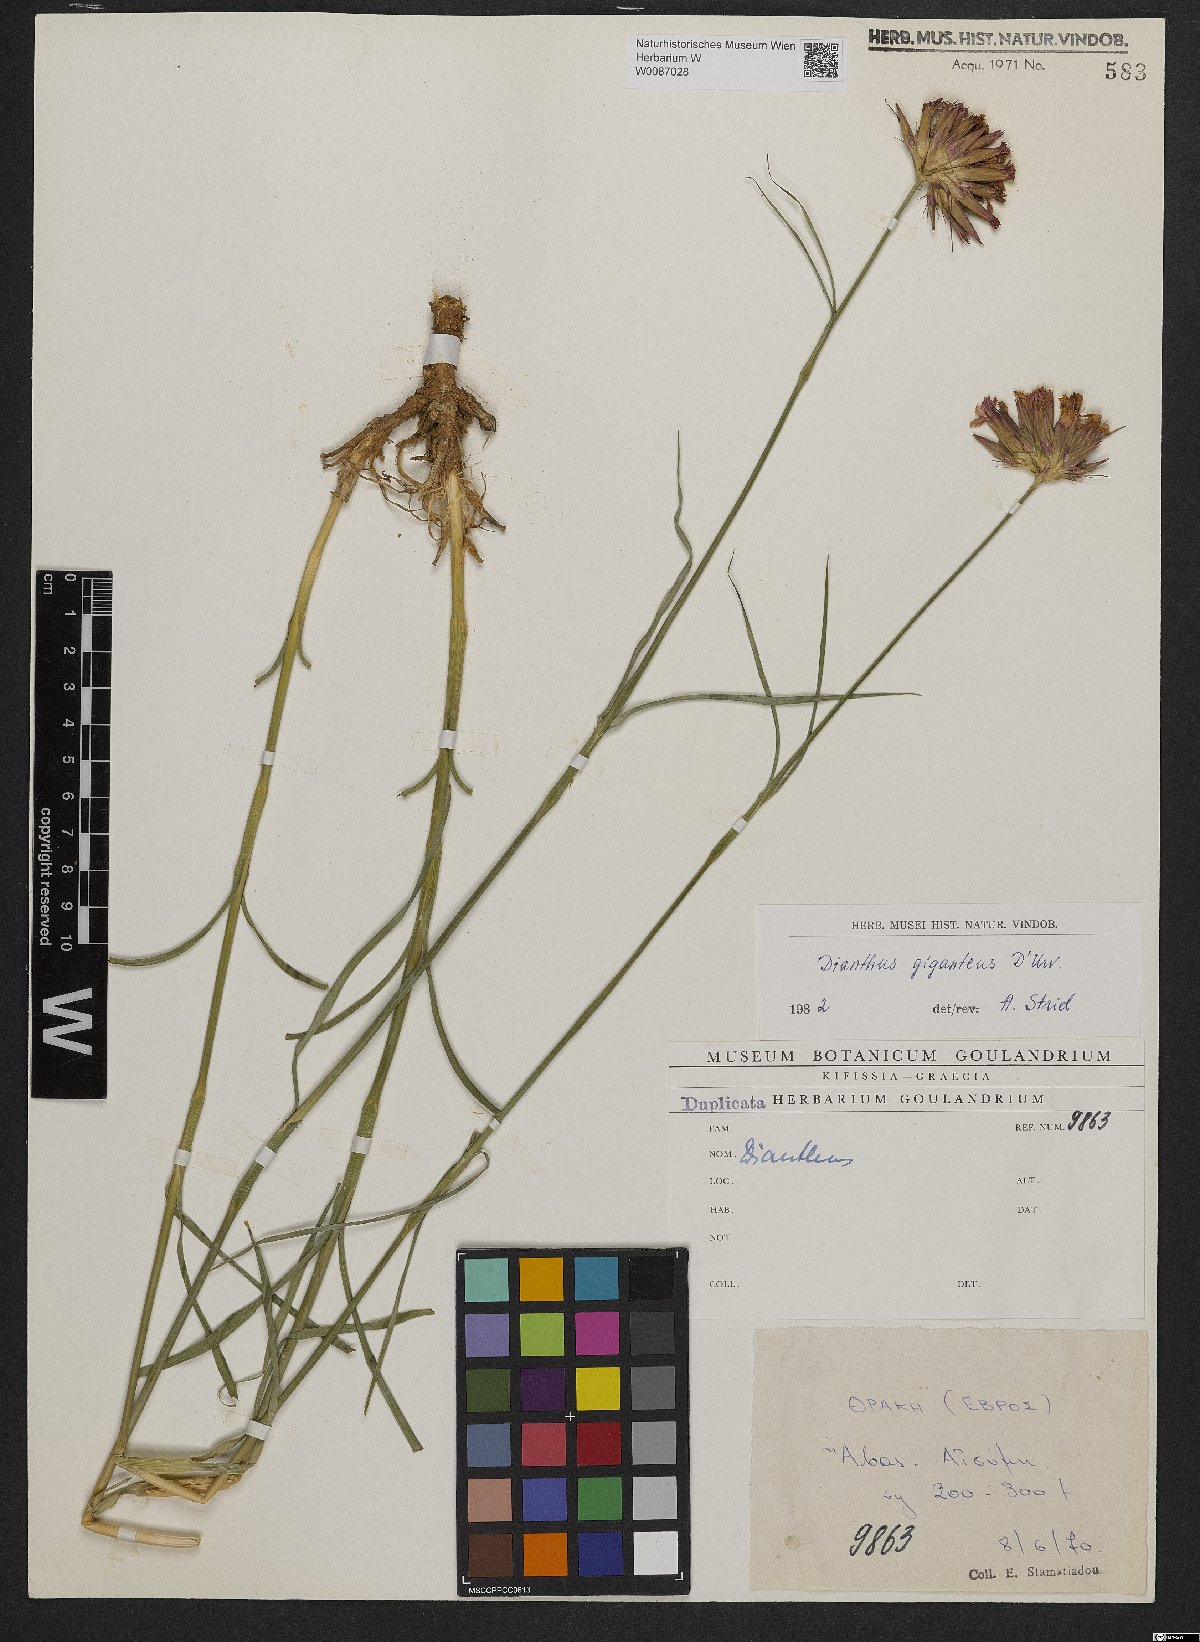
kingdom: Plantae
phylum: Tracheophyta
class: Magnoliopsida
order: Caryophyllales
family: Caryophyllaceae
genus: Dianthus
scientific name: Dianthus cruentus
